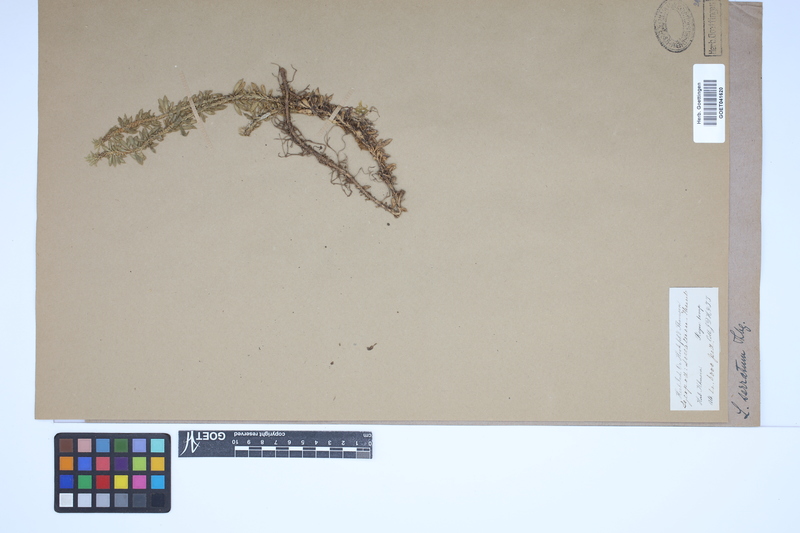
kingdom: Plantae
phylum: Tracheophyta
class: Lycopodiopsida
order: Lycopodiales
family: Lycopodiaceae
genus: Huperzia
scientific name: Huperzia serrata
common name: Toothed club-moss
